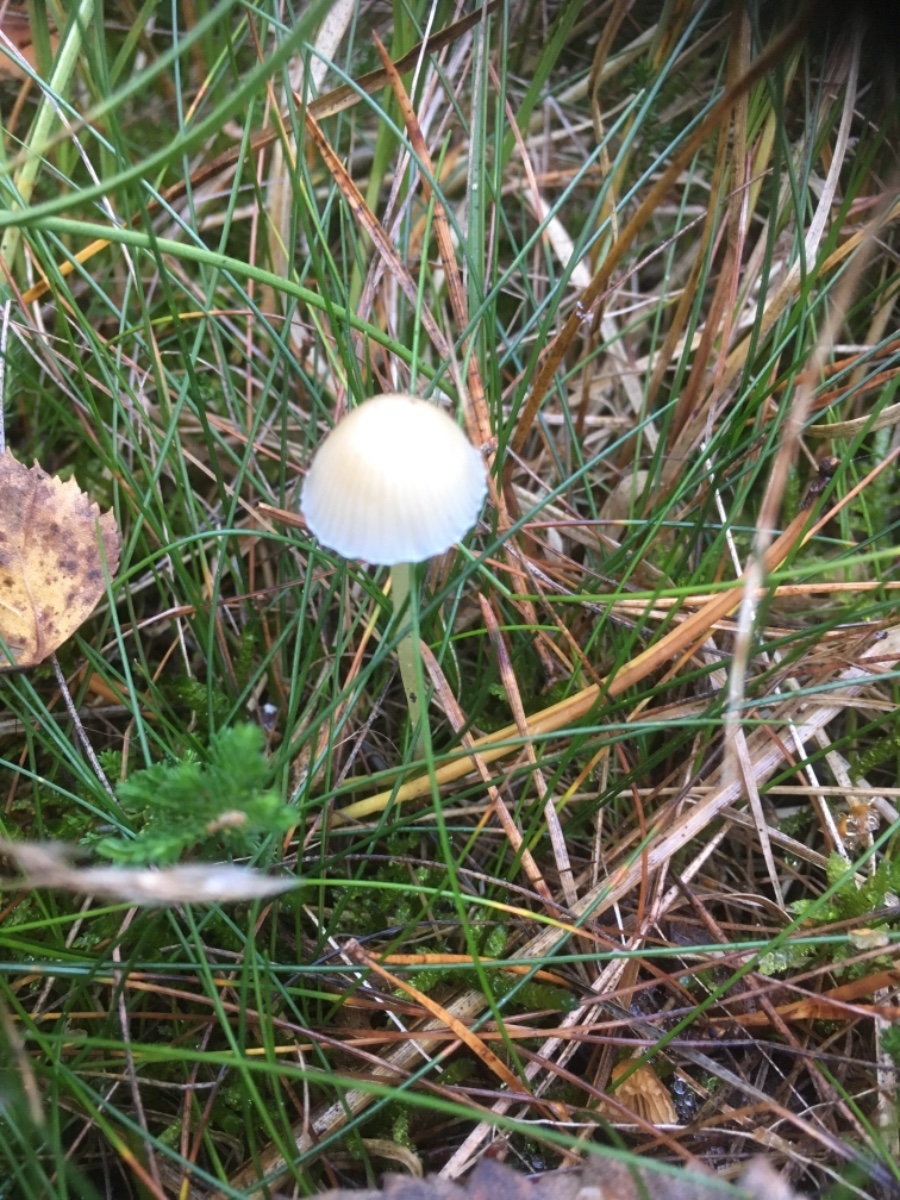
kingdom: Fungi
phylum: Basidiomycota
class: Agaricomycetes
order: Agaricales
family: Mycenaceae
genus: Mycena
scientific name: Mycena epipterygia
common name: gulstokket huesvamp
